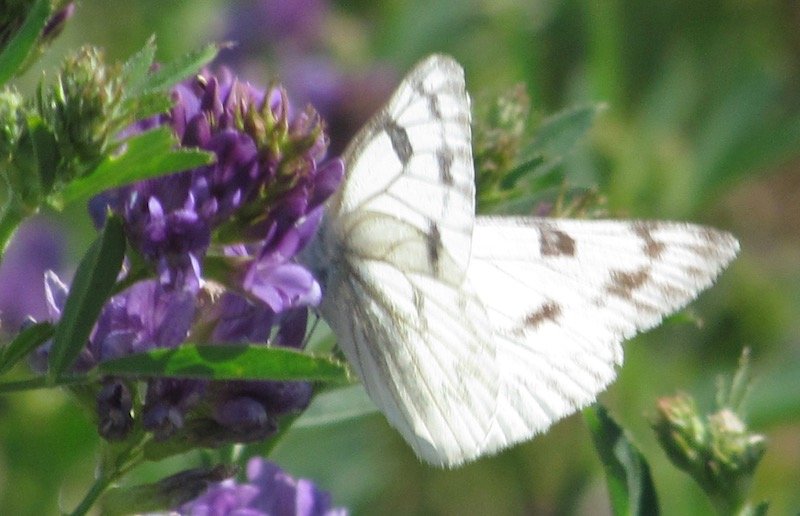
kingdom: Animalia
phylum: Arthropoda
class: Insecta
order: Lepidoptera
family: Pieridae
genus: Pontia
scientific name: Pontia protodice
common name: Checkered White
